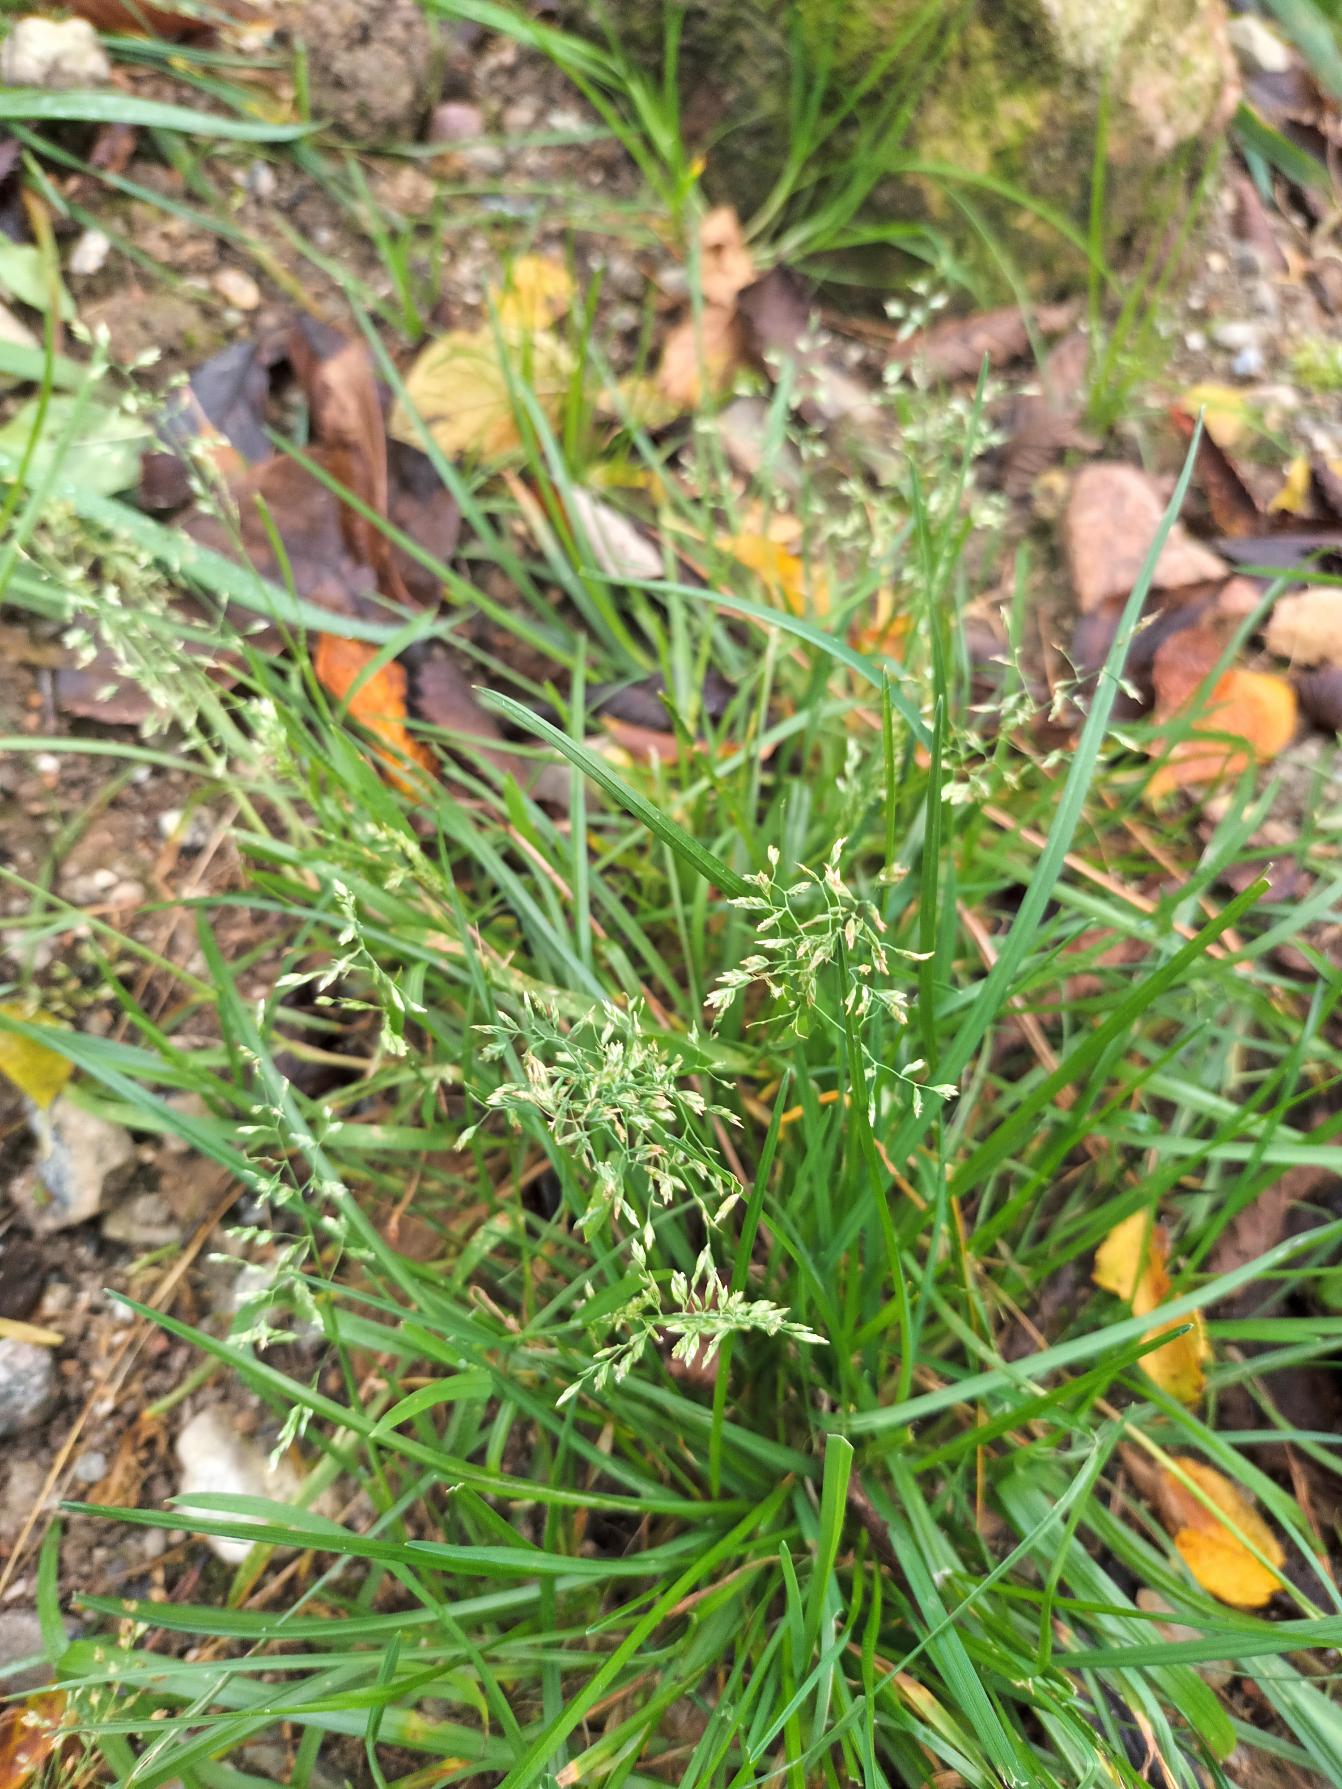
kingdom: Plantae
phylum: Tracheophyta
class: Liliopsida
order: Poales
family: Poaceae
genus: Poa
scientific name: Poa annua
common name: Enårig rapgræs
